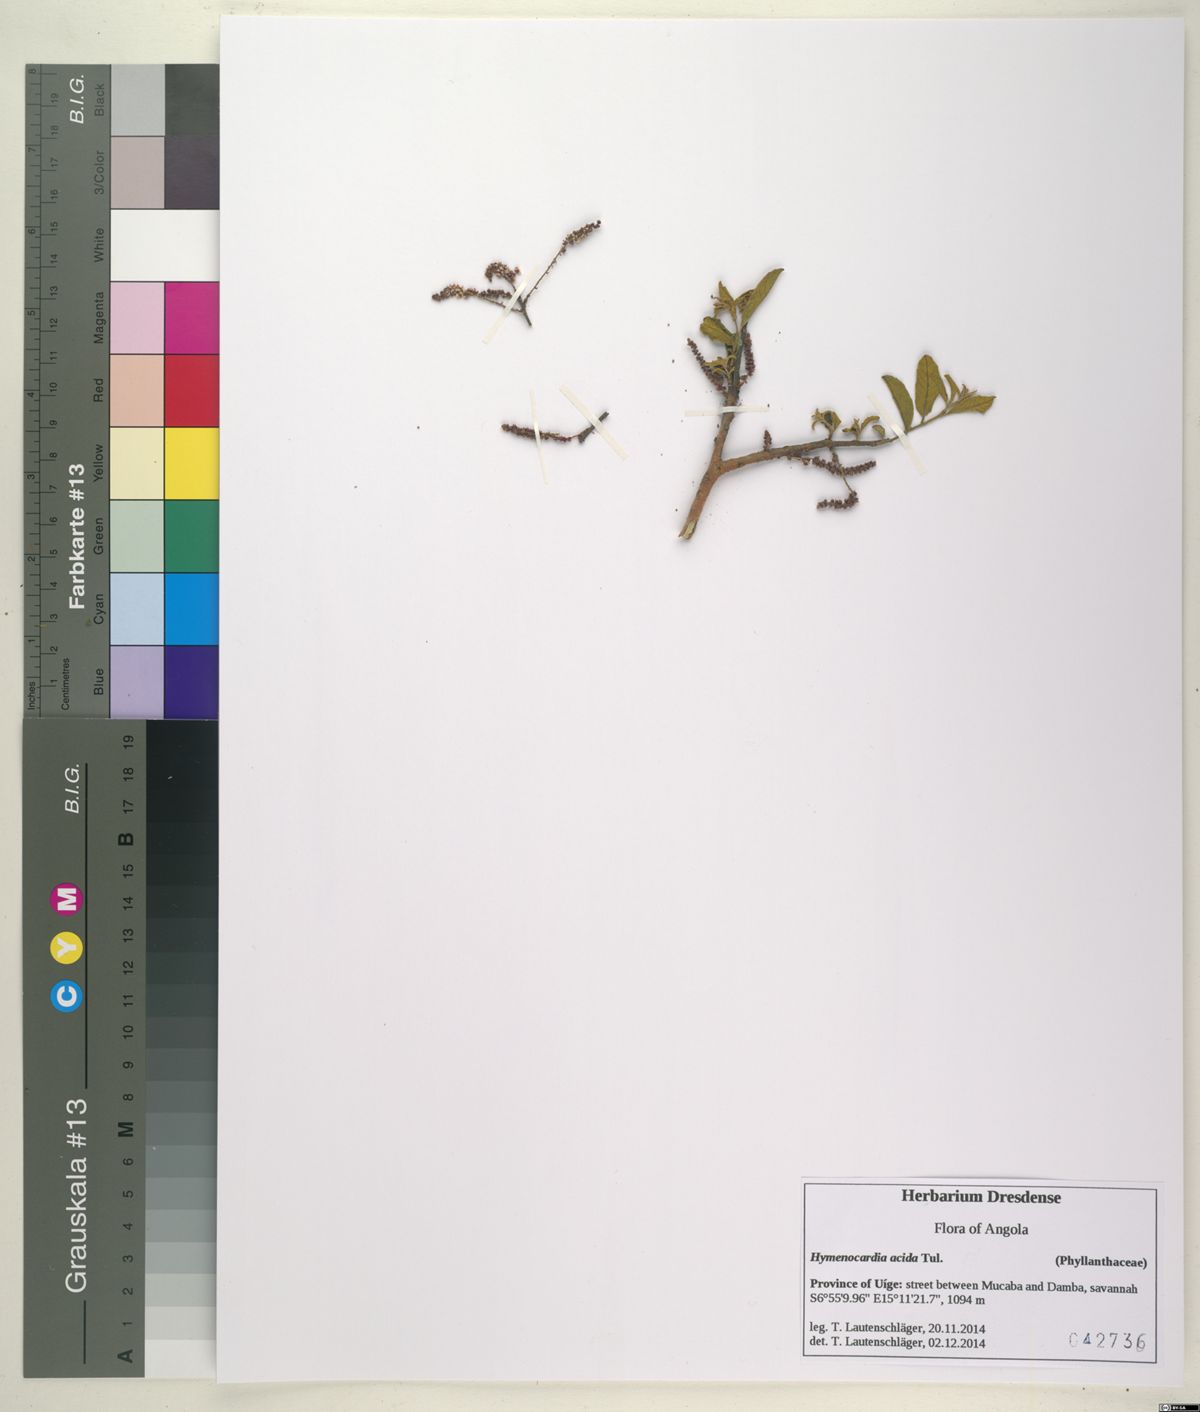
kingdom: Plantae
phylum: Tracheophyta
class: Magnoliopsida
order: Malpighiales
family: Phyllanthaceae
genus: Hymenocardia
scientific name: Hymenocardia acida
